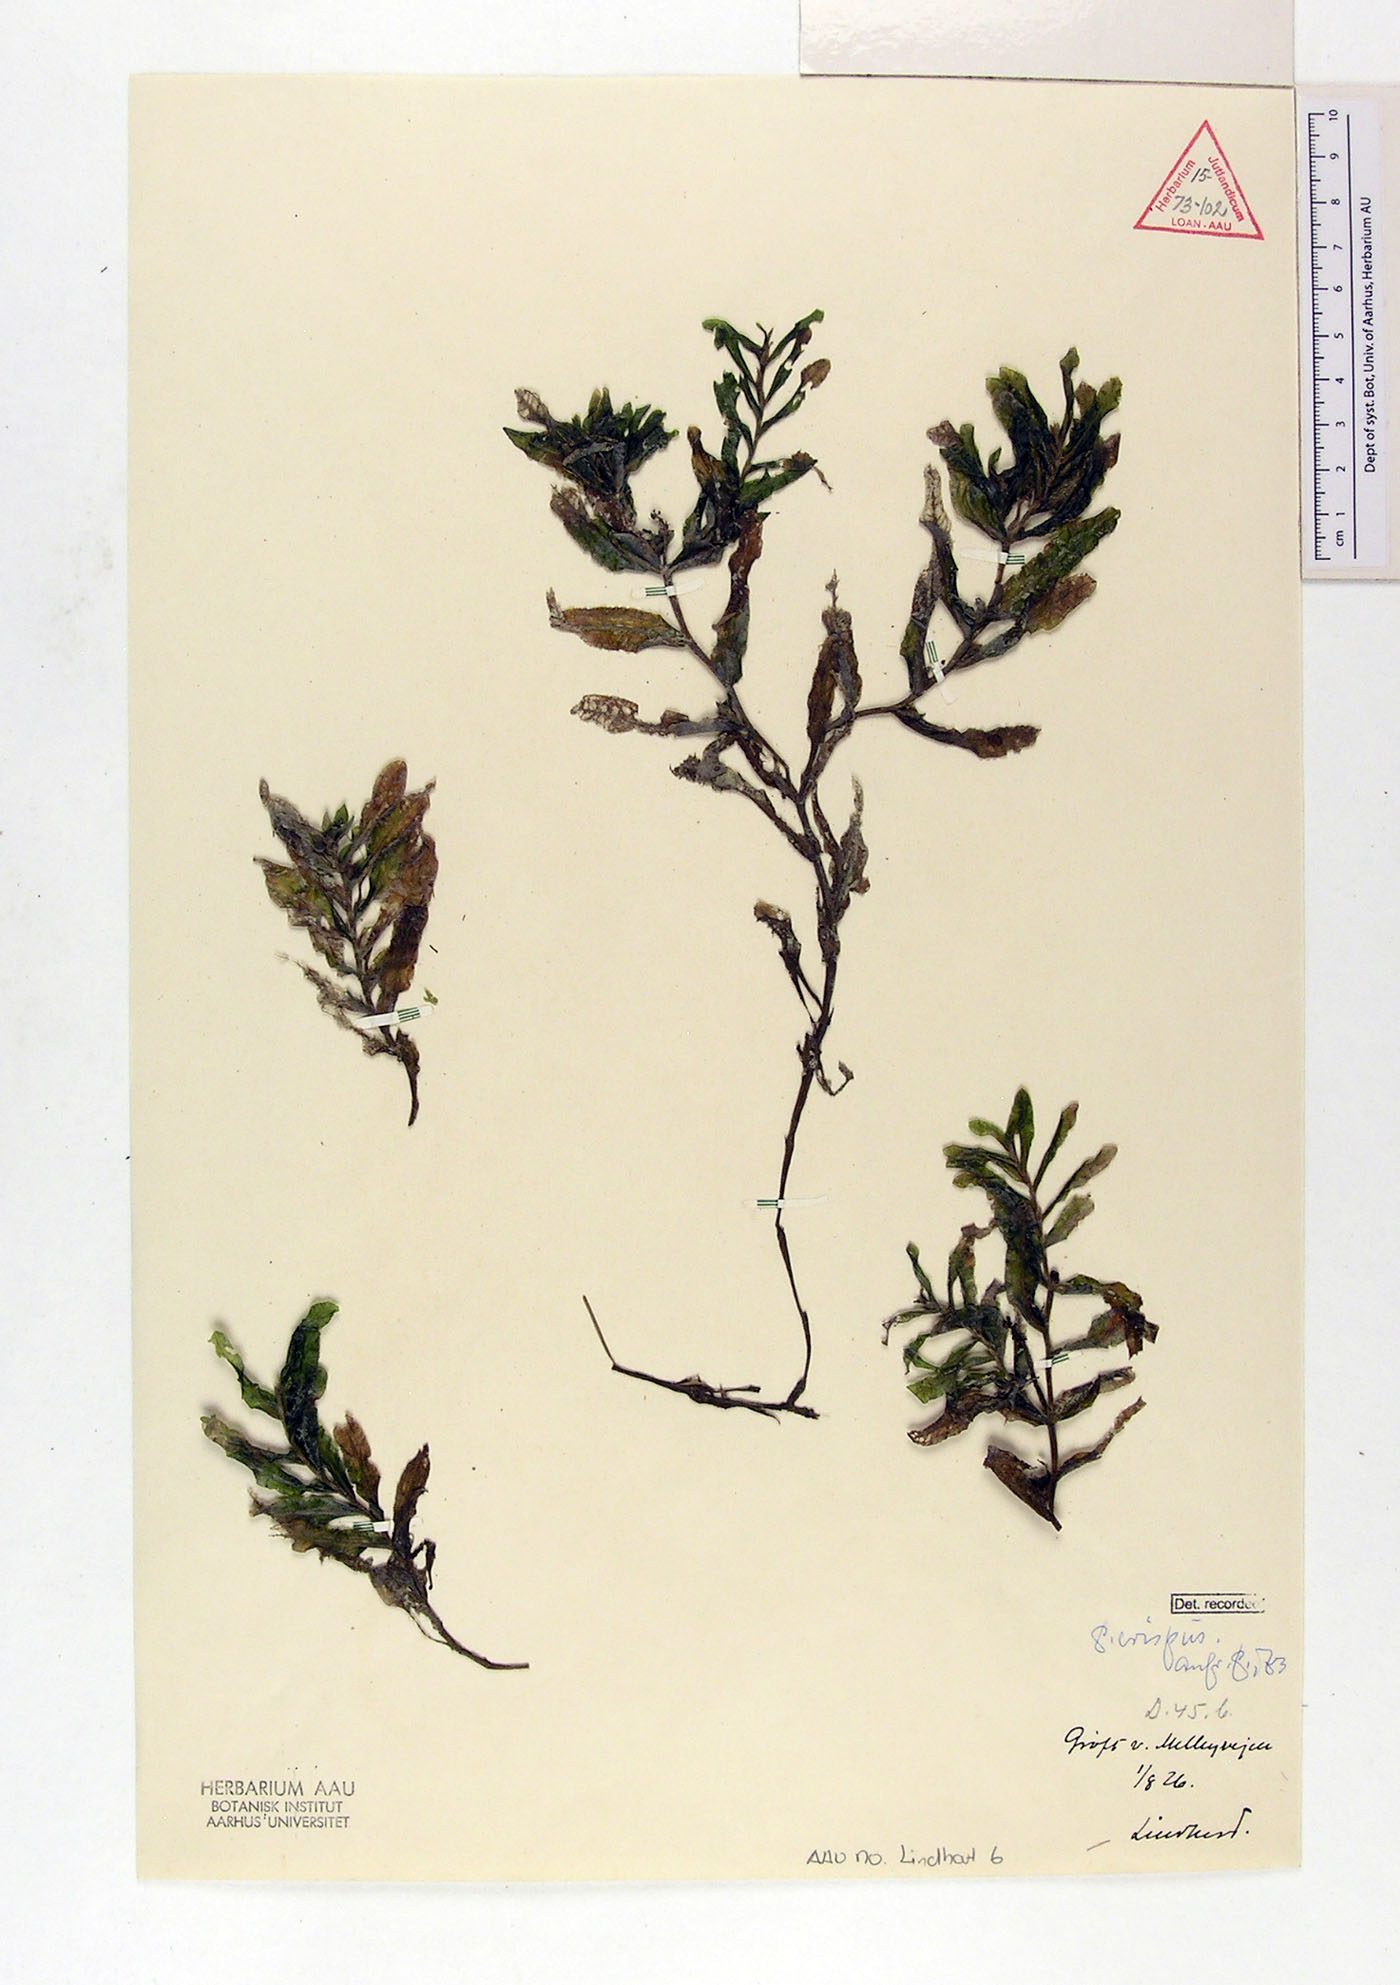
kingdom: Plantae
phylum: Tracheophyta
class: Liliopsida
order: Alismatales
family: Potamogetonaceae
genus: Potamogeton
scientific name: Potamogeton crispus
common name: Curled pondweed
